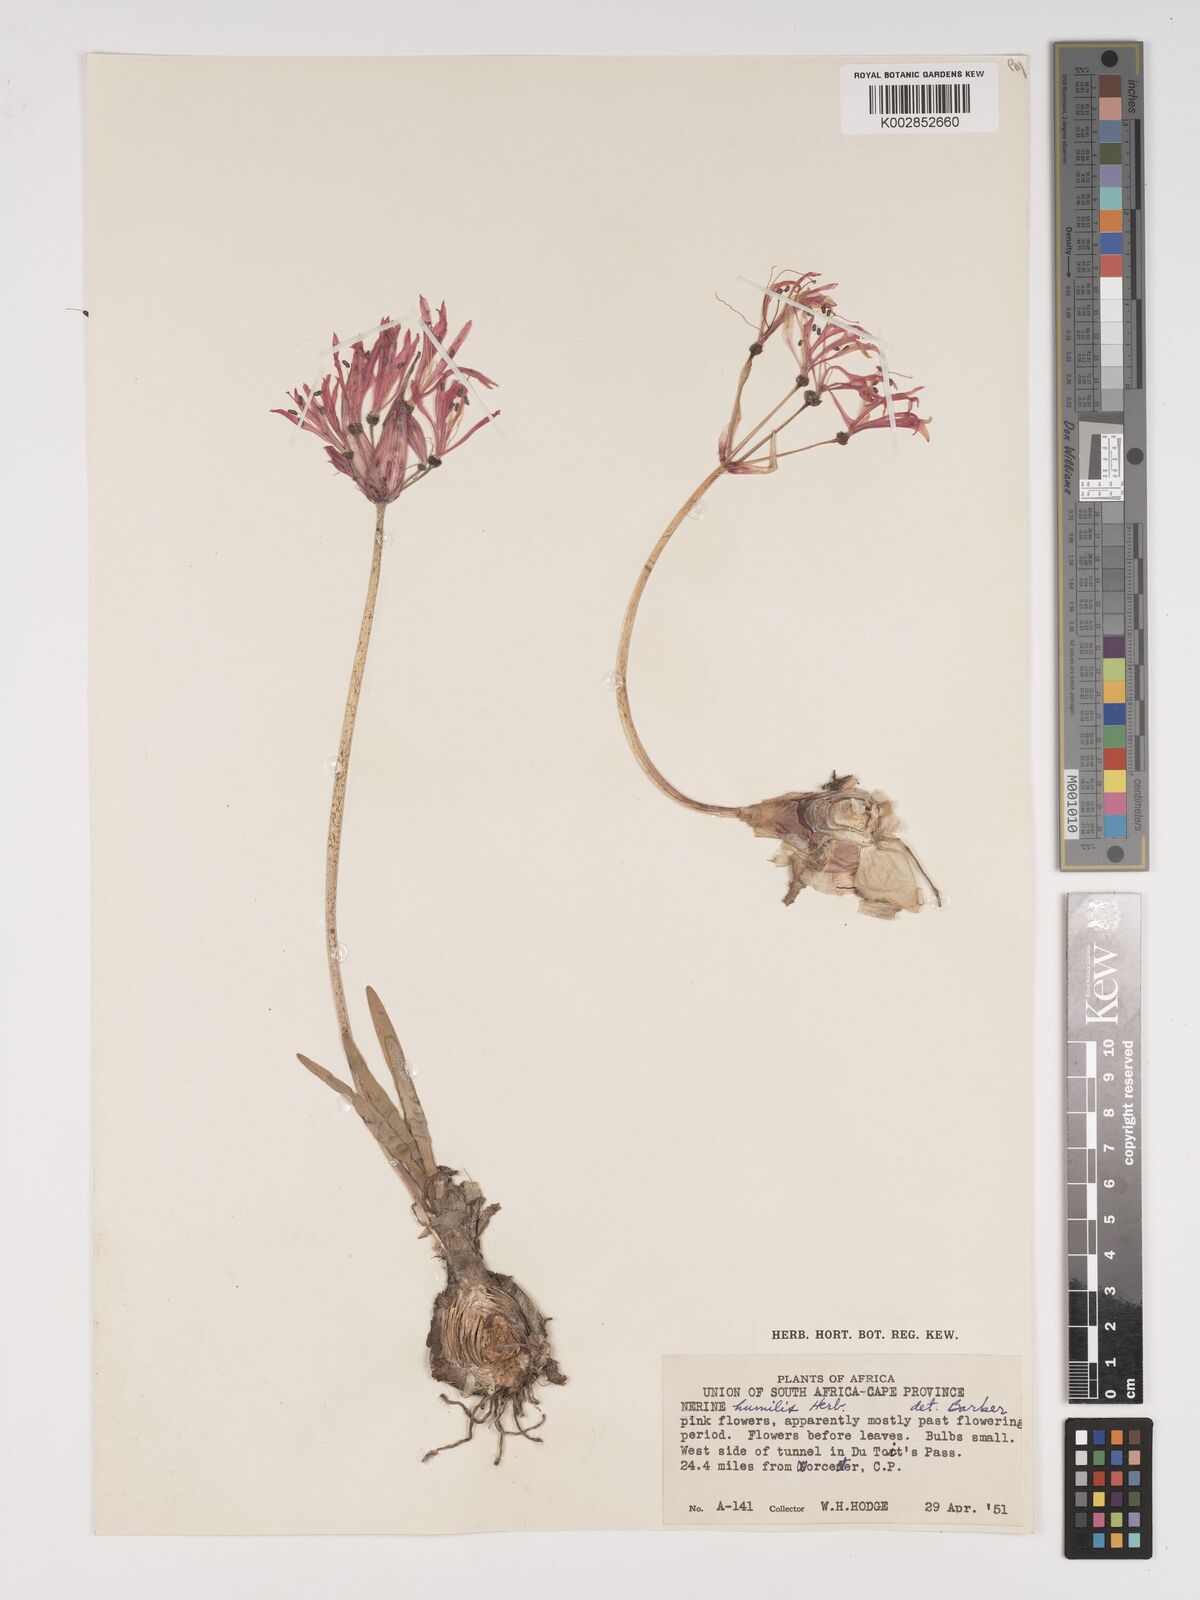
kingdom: Plantae
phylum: Tracheophyta
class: Liliopsida
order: Asparagales
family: Amaryllidaceae
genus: Nerine
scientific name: Nerine humilis
